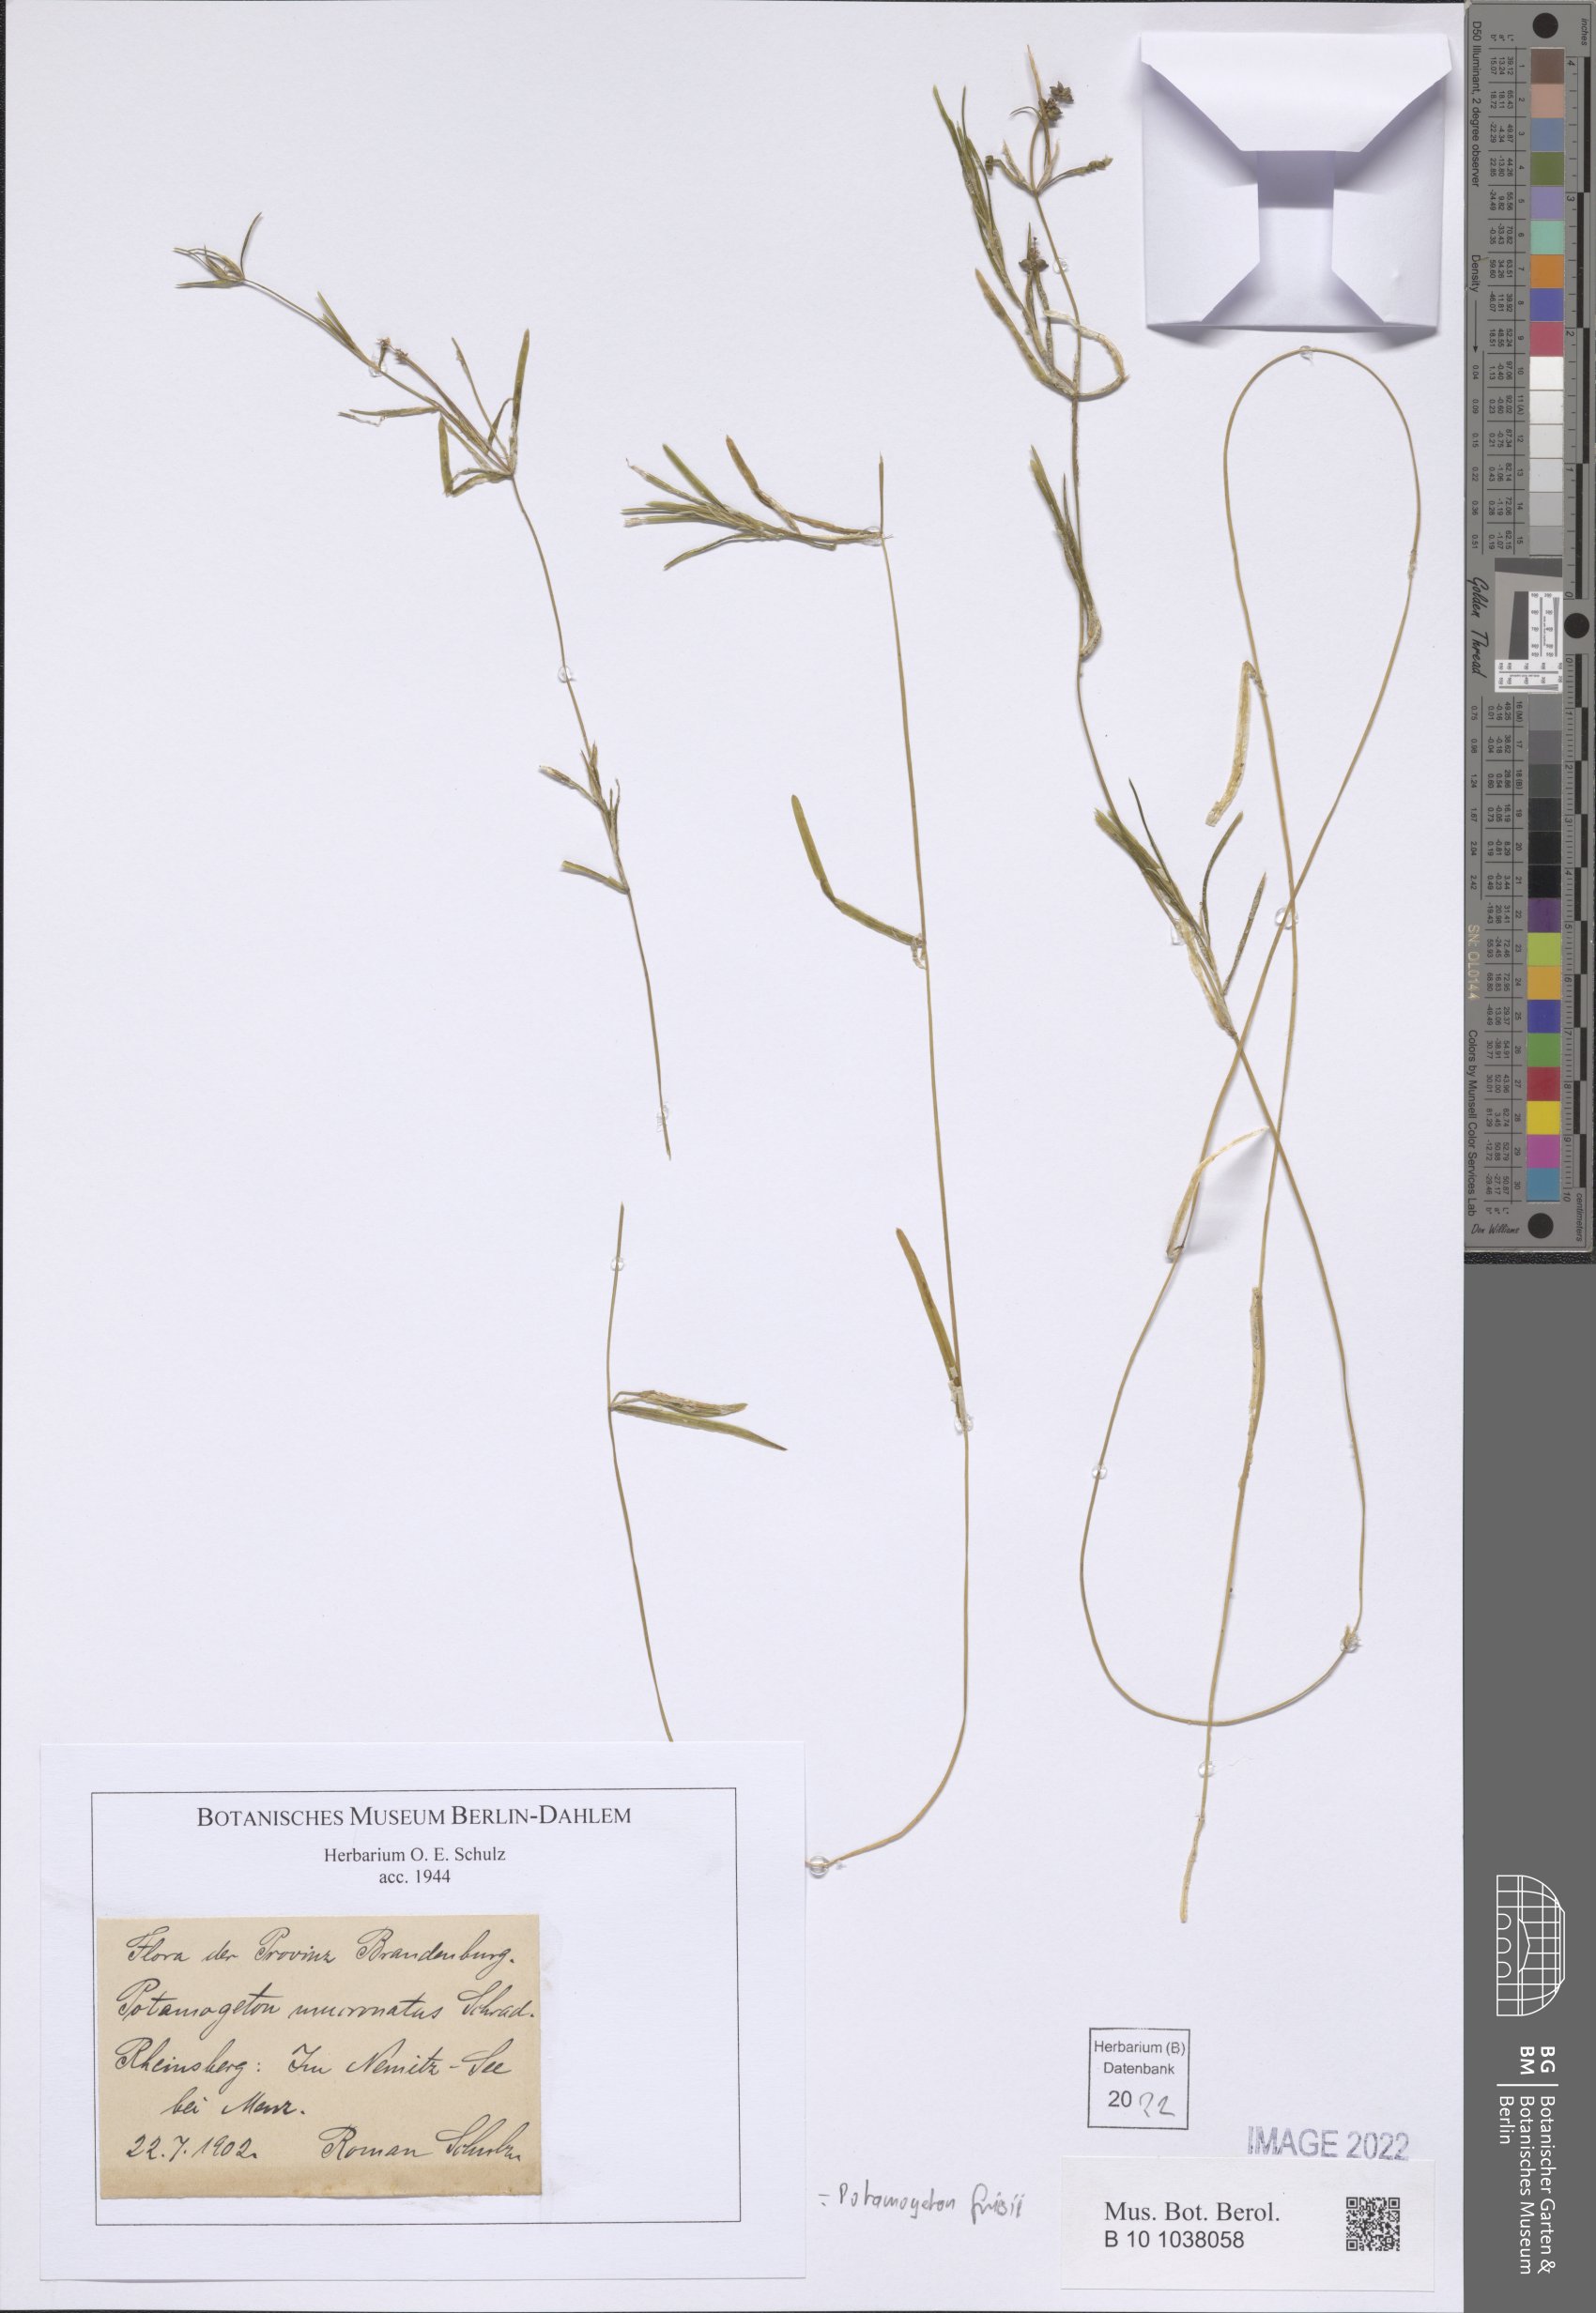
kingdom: Plantae
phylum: Tracheophyta
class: Liliopsida
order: Alismatales
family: Potamogetonaceae
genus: Potamogeton
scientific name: Potamogeton friesii
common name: Flat-stalked pondweed
